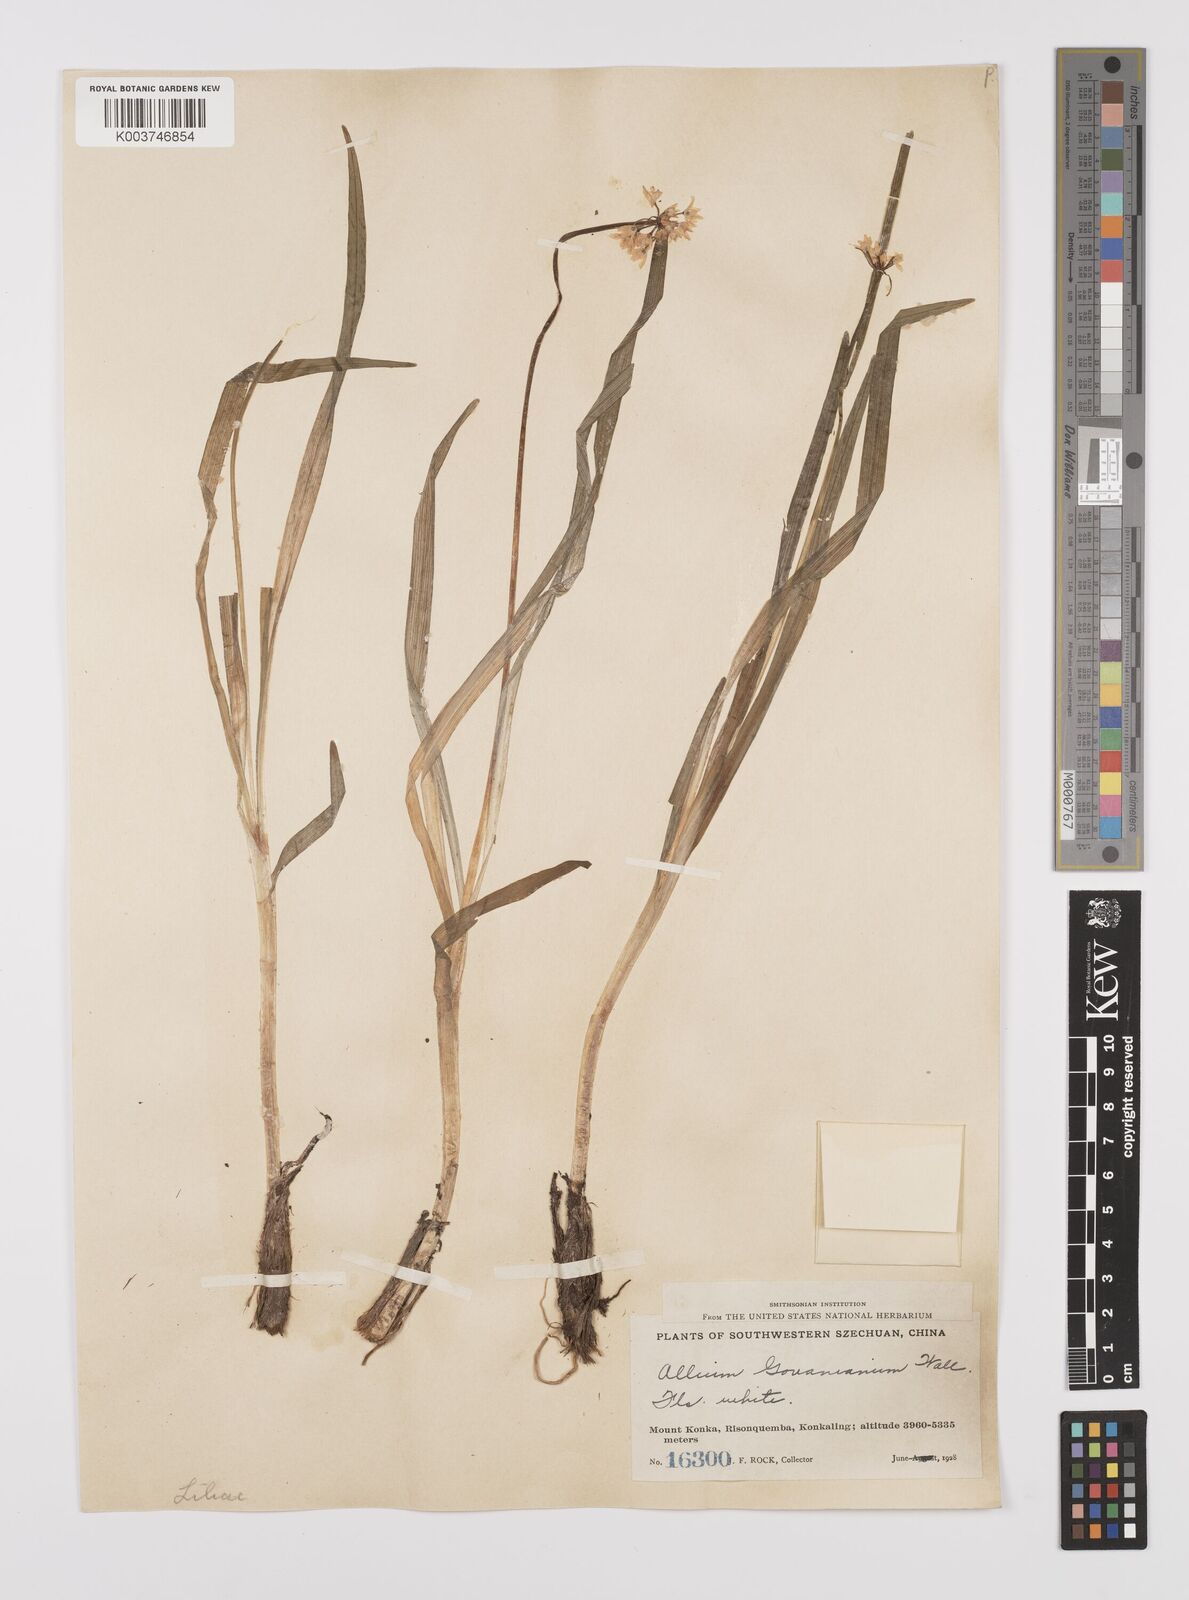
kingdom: Plantae
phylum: Tracheophyta
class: Liliopsida
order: Asparagales
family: Amaryllidaceae
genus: Allium
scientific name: Allium trifurcatum
